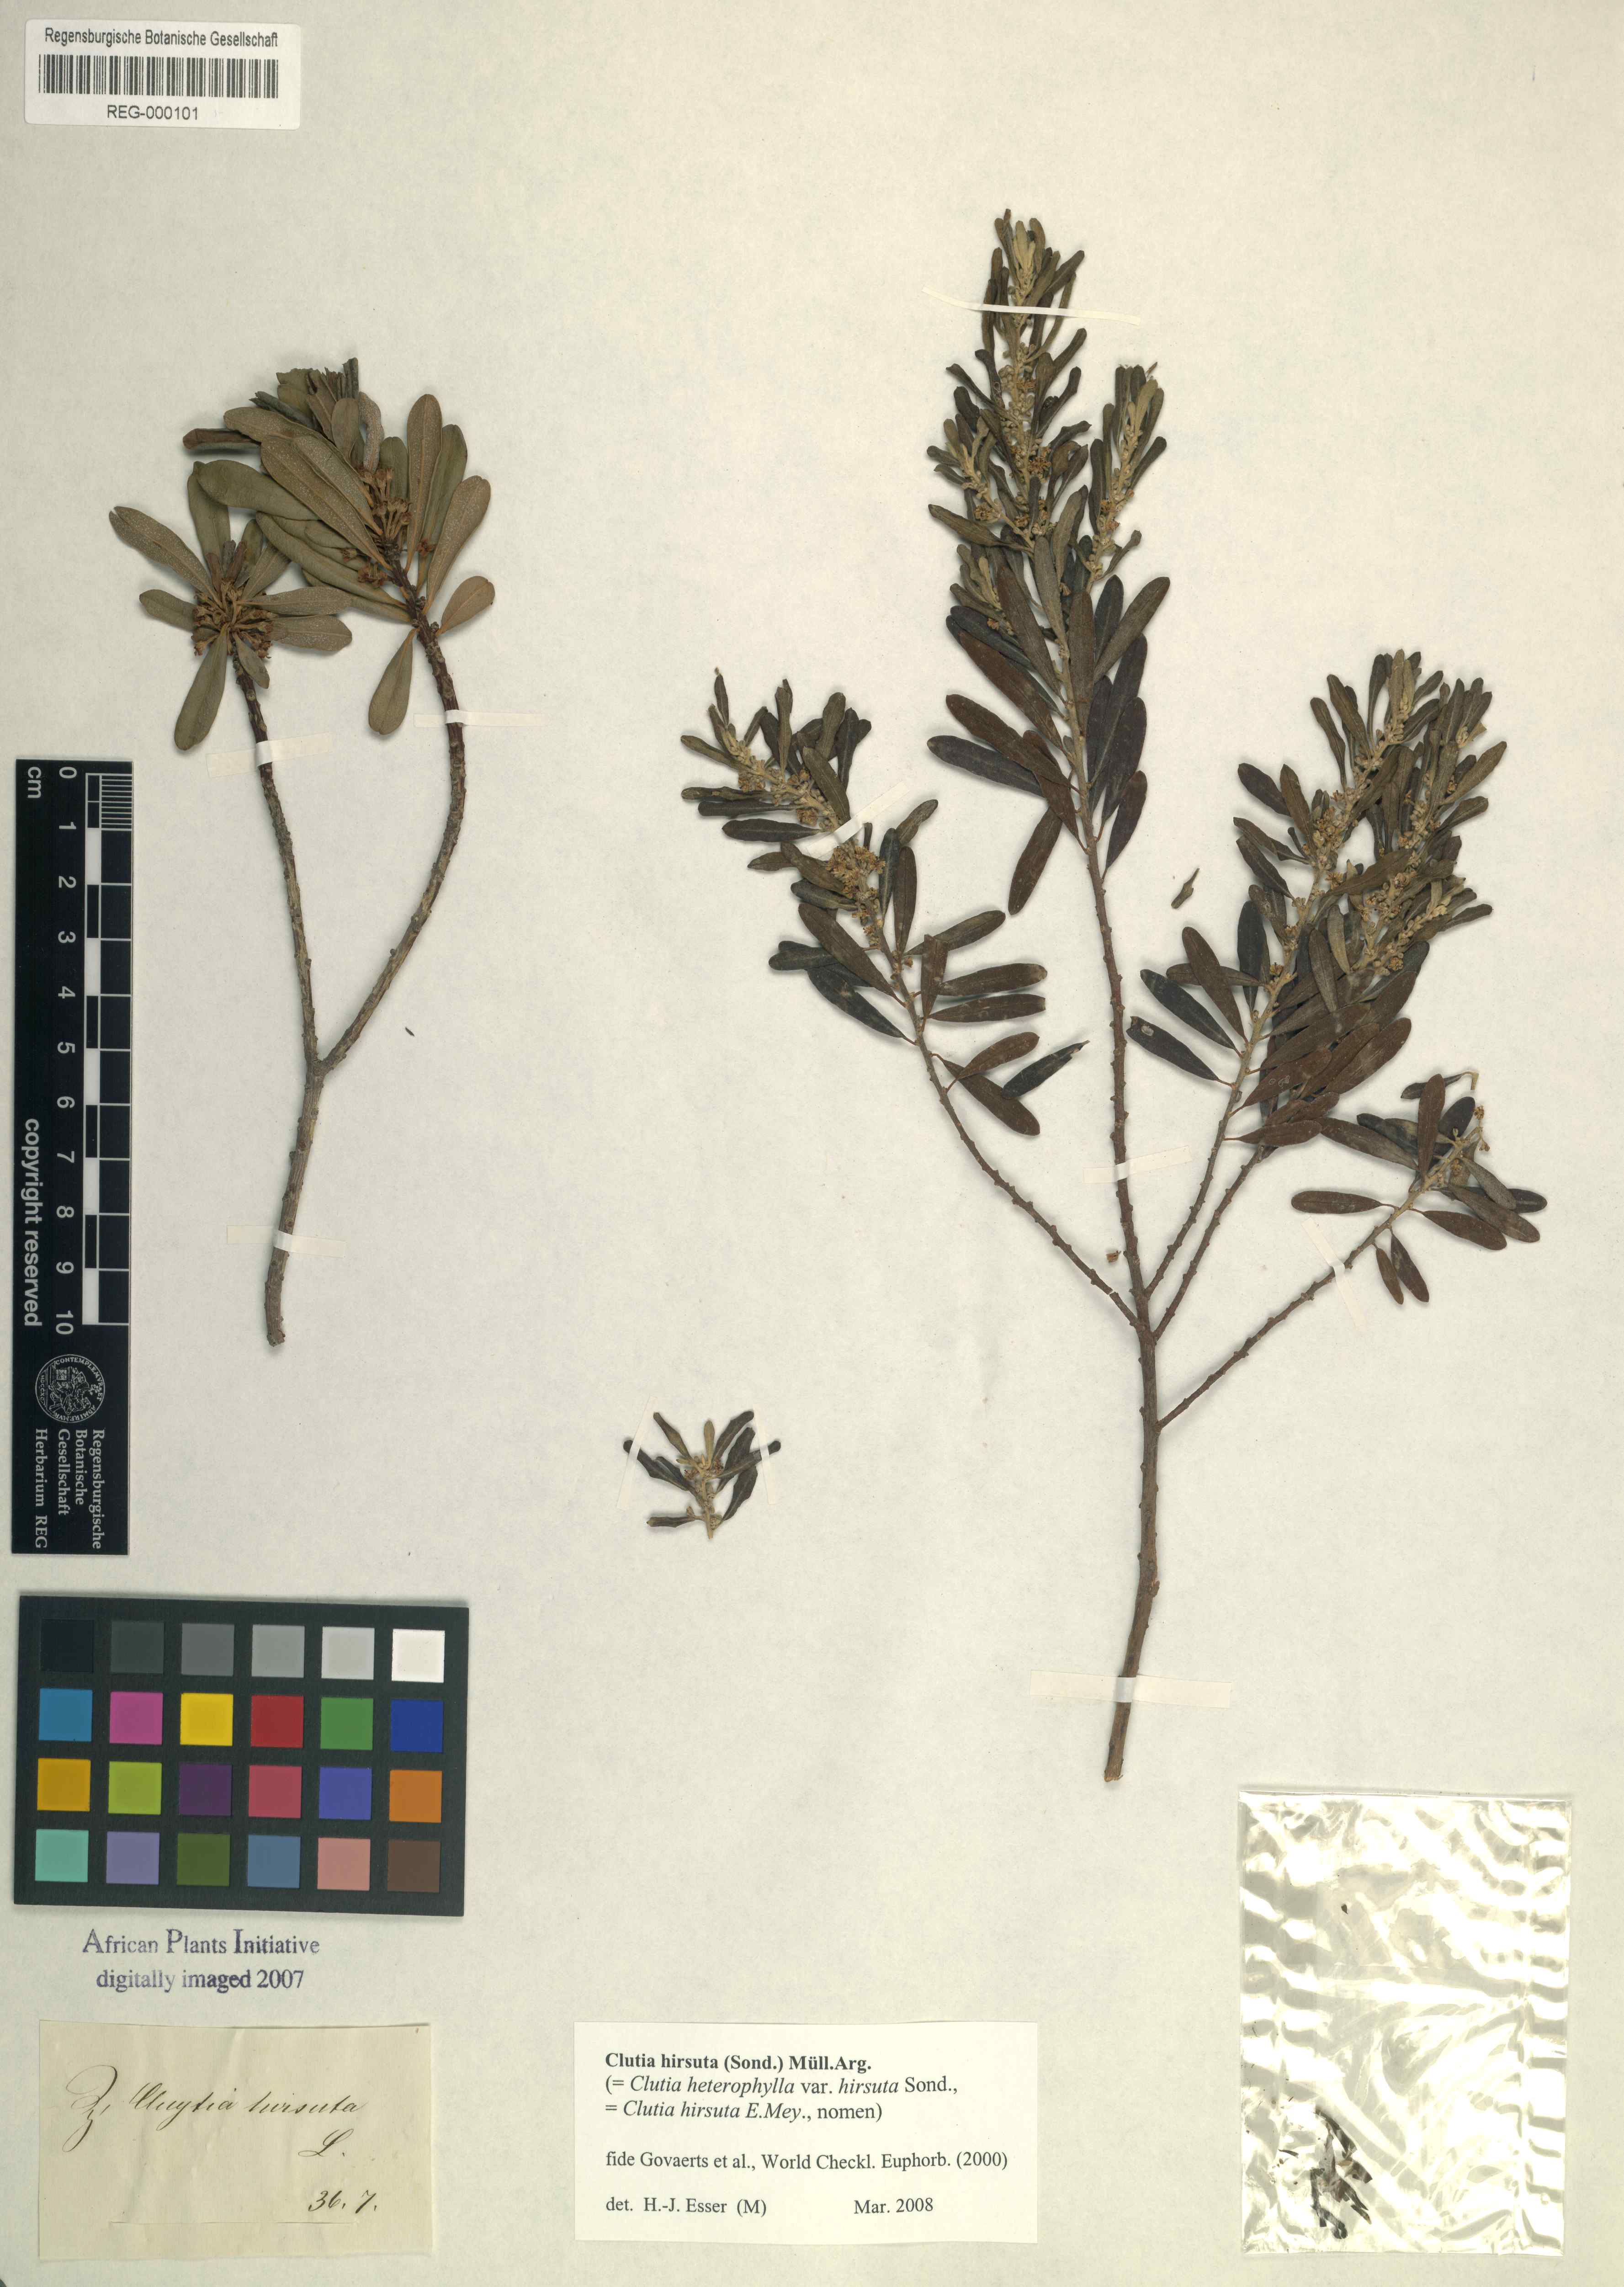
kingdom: Plantae
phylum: Tracheophyta
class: Magnoliopsida
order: Malpighiales
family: Peraceae
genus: Clutia
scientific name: Clutia hirsuta
